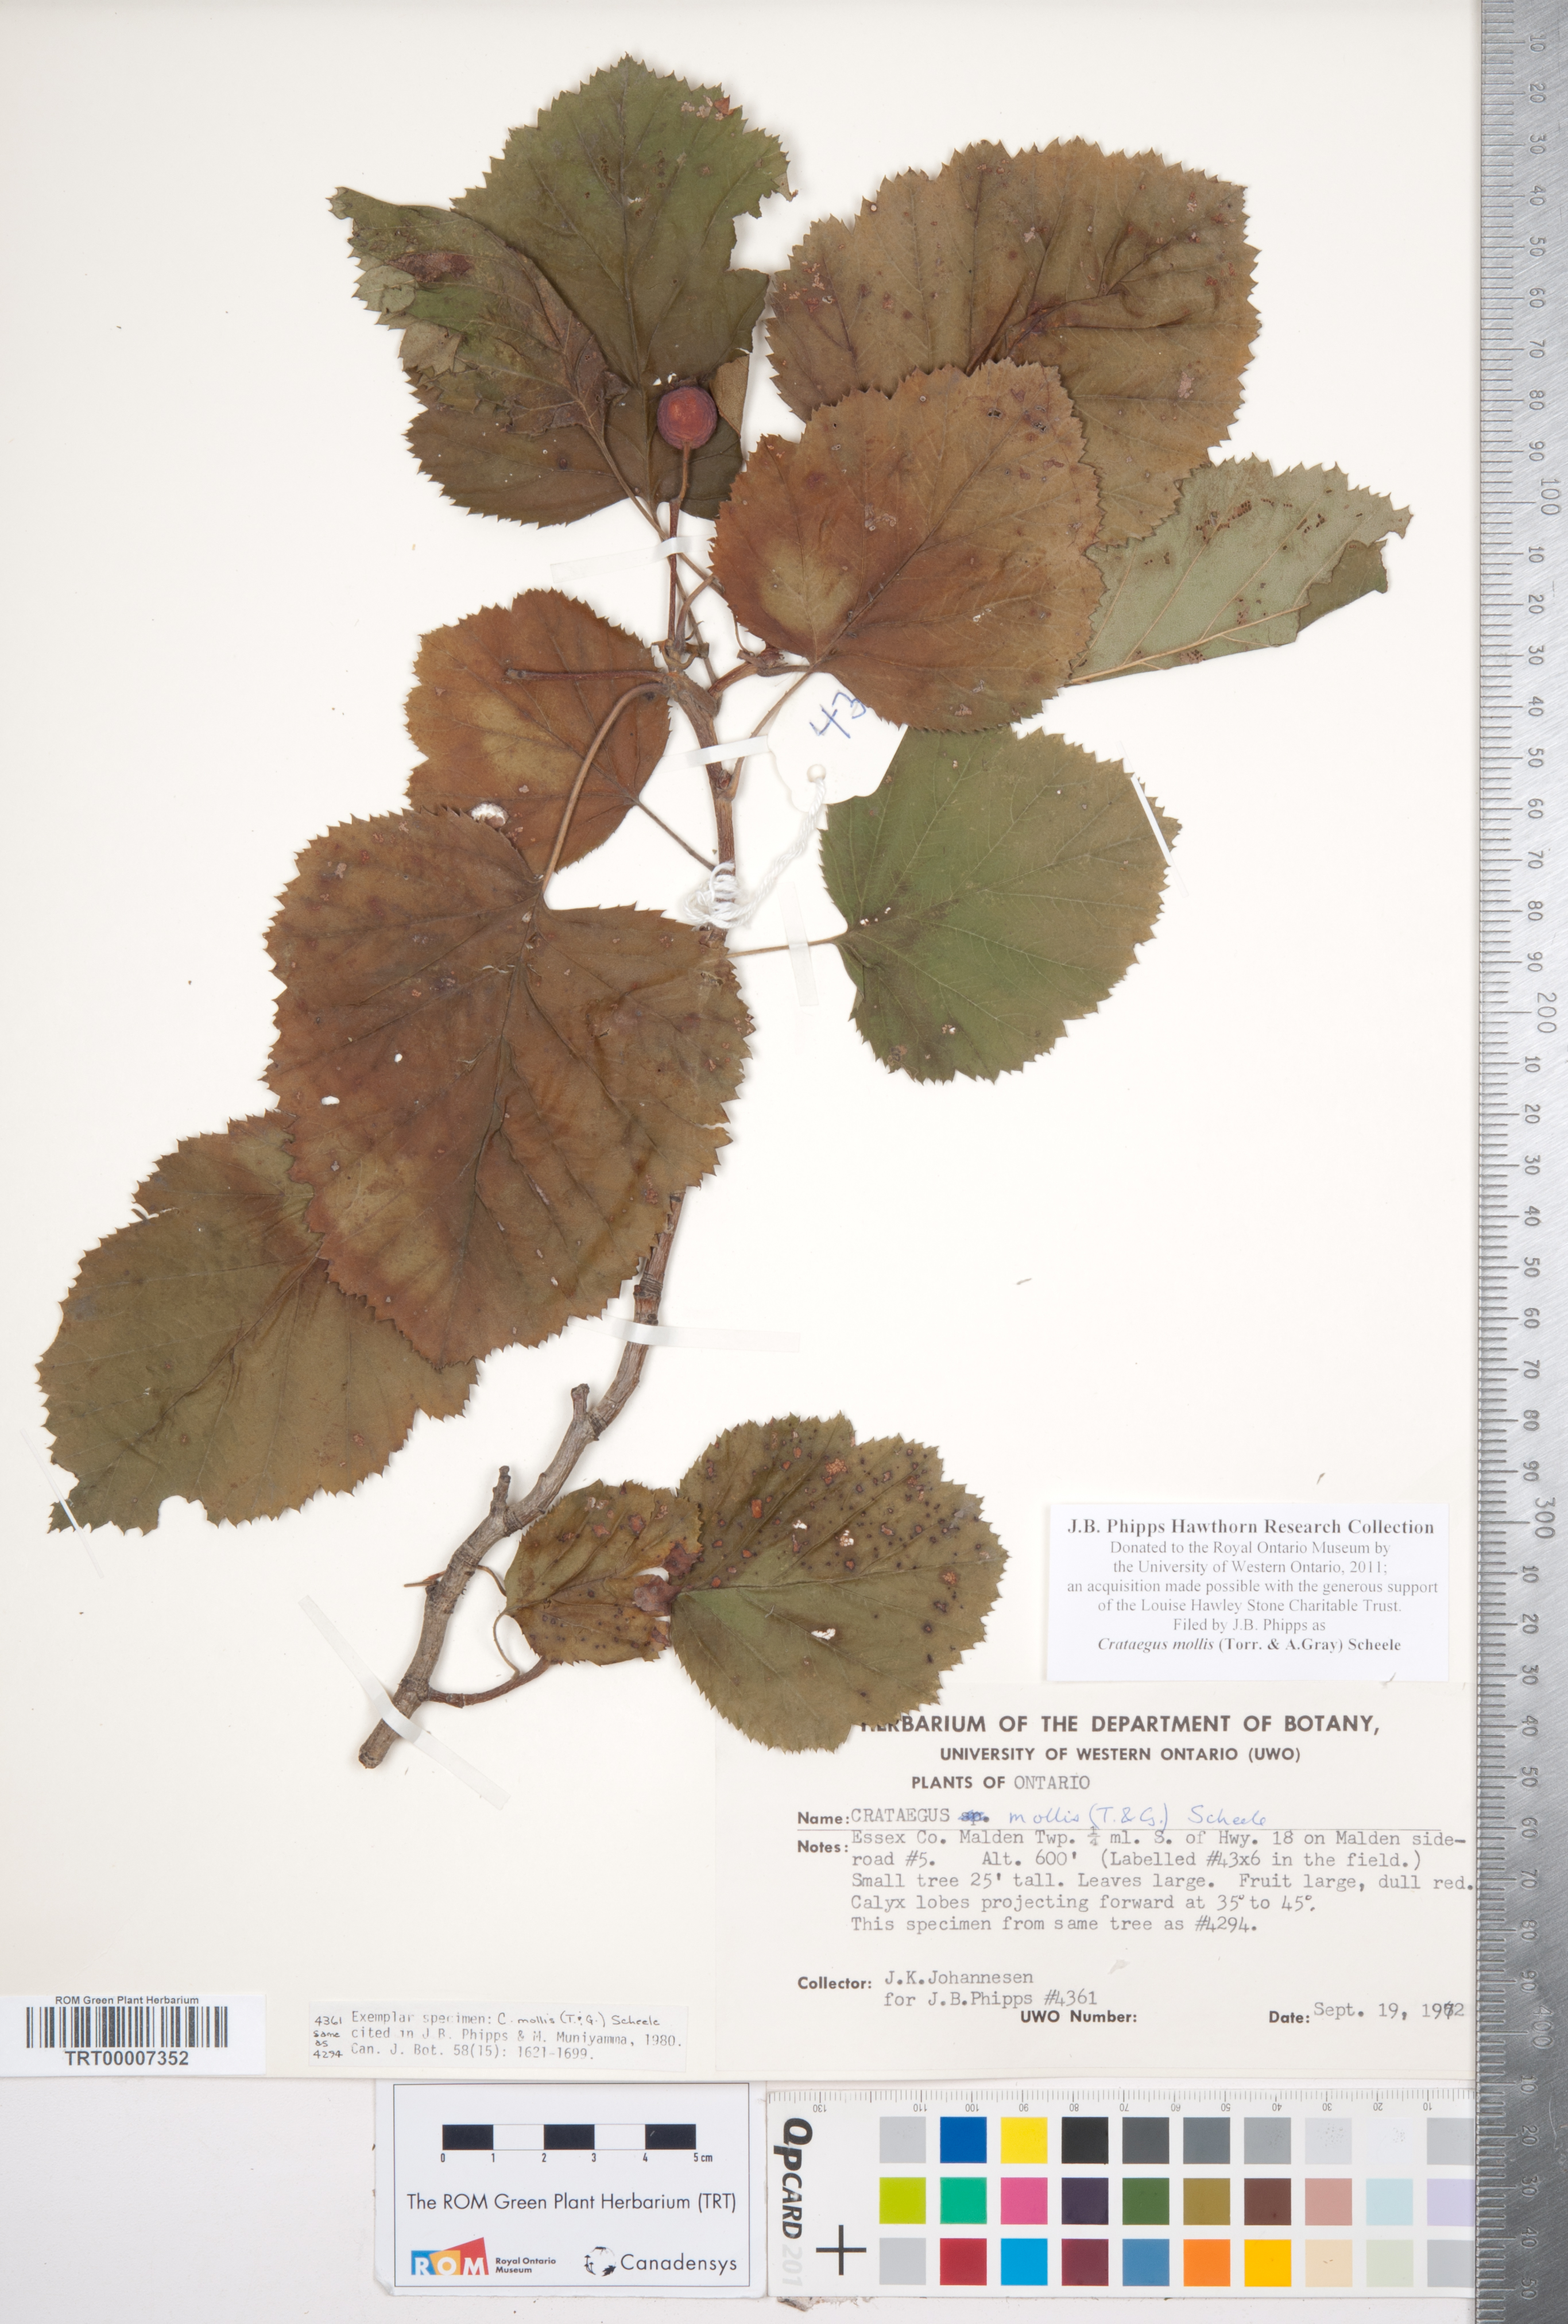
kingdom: Plantae
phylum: Tracheophyta
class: Magnoliopsida
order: Rosales
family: Rosaceae
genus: Crataegus
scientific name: Crataegus mollis
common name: Downy hawthorn
